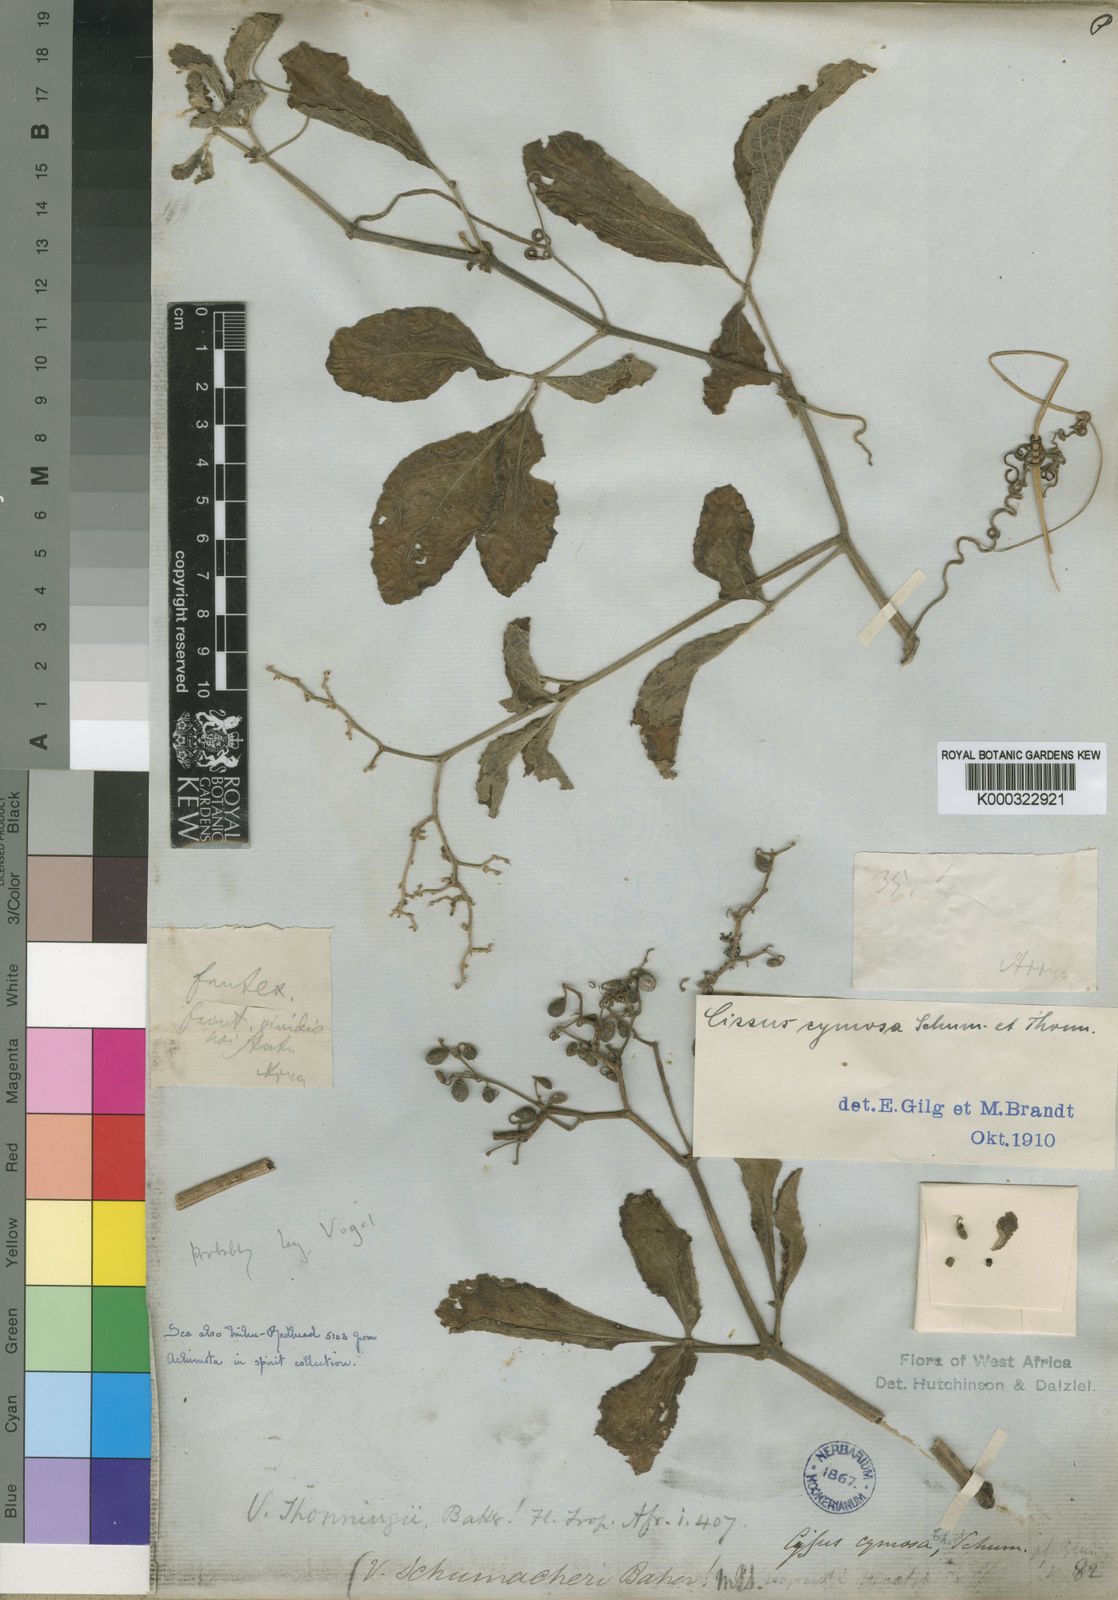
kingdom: Plantae
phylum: Tracheophyta
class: Magnoliopsida
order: Vitales
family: Vitaceae
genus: Cyphostemma
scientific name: Cyphostemma cymosum
